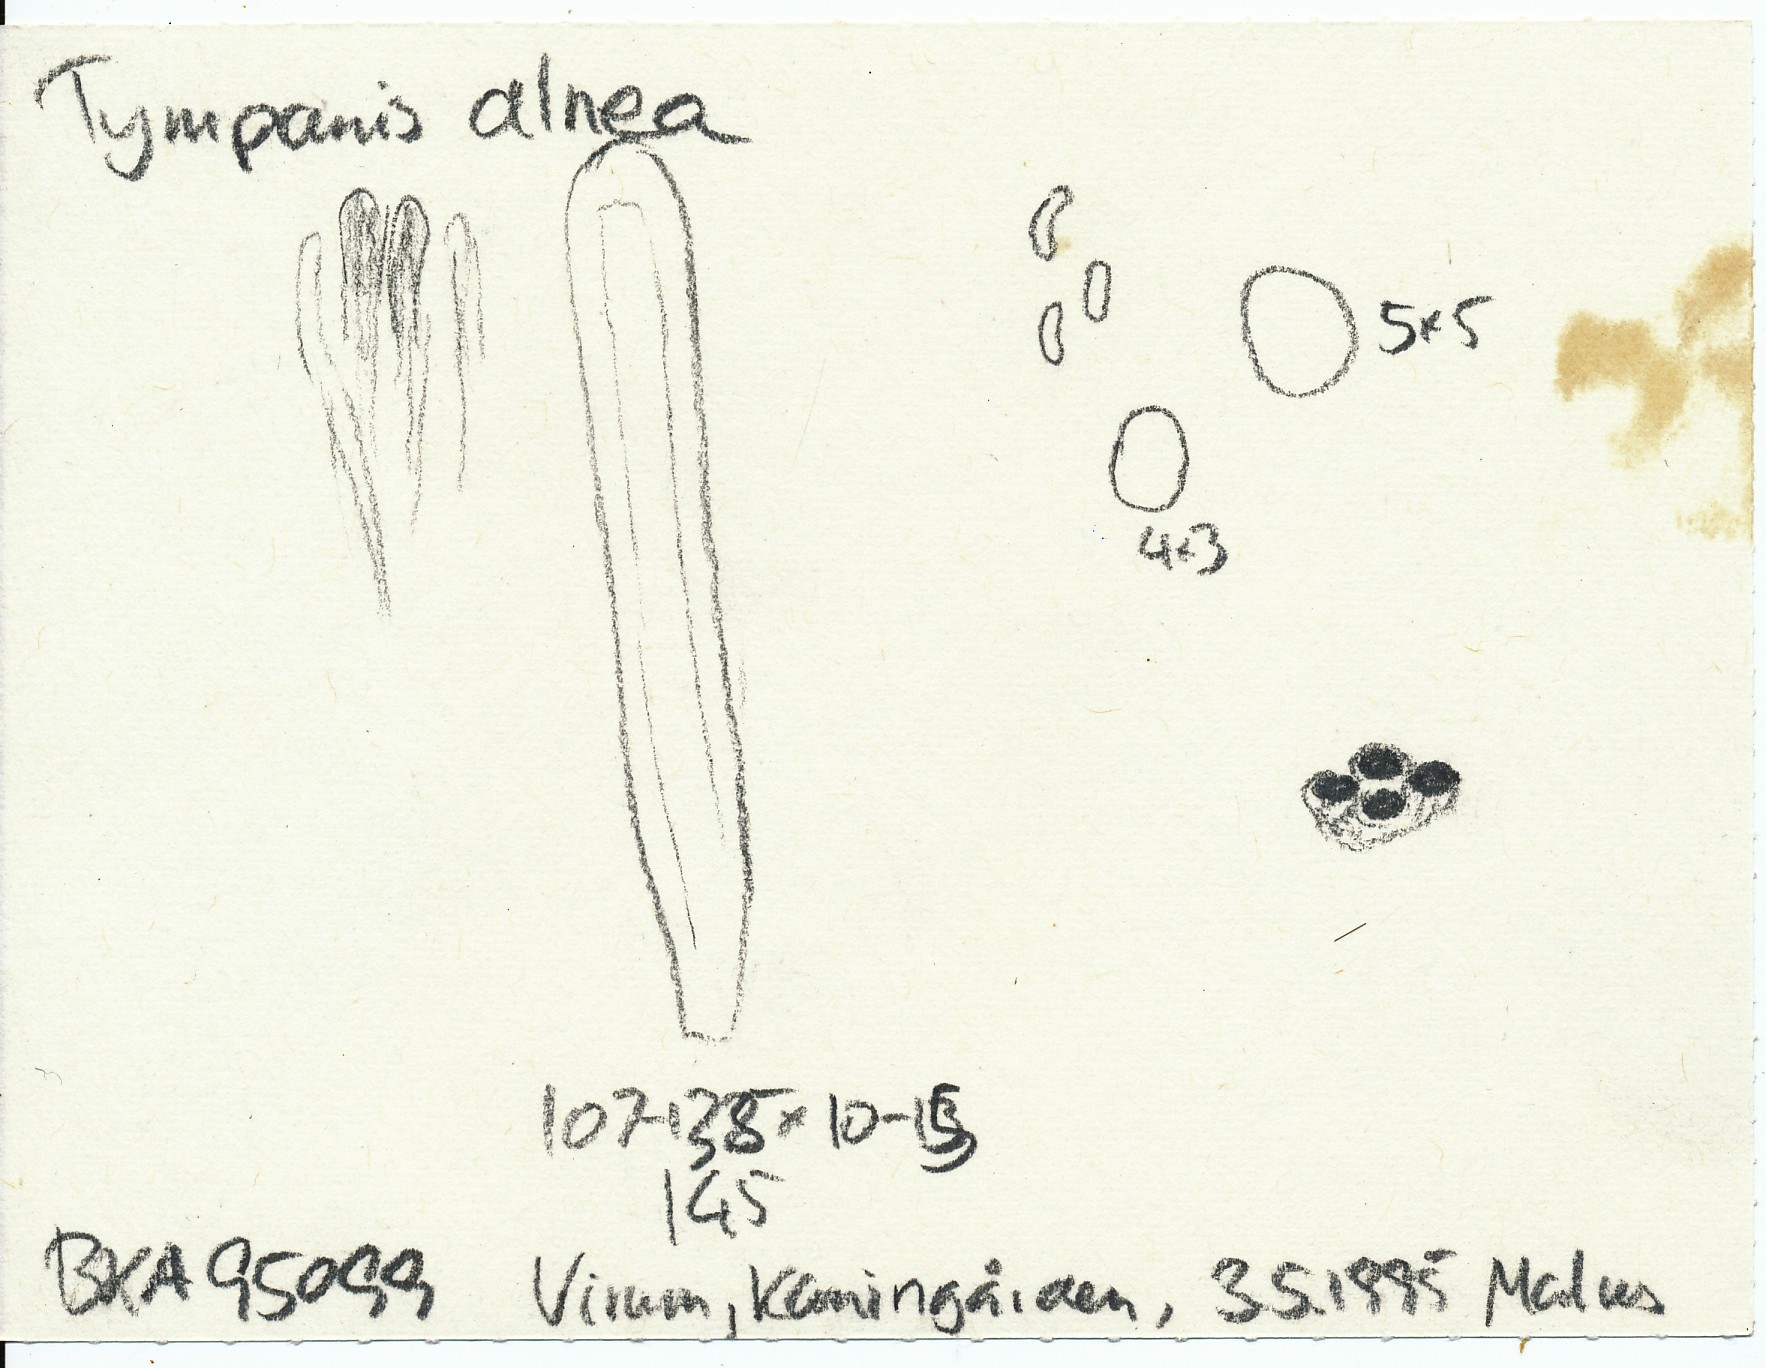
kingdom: Fungi
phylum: Ascomycota
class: Leotiomycetes
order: Leotiales
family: Tympanidaceae
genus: Tympanis
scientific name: Tympanis alnea
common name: almindelig knippeskive
